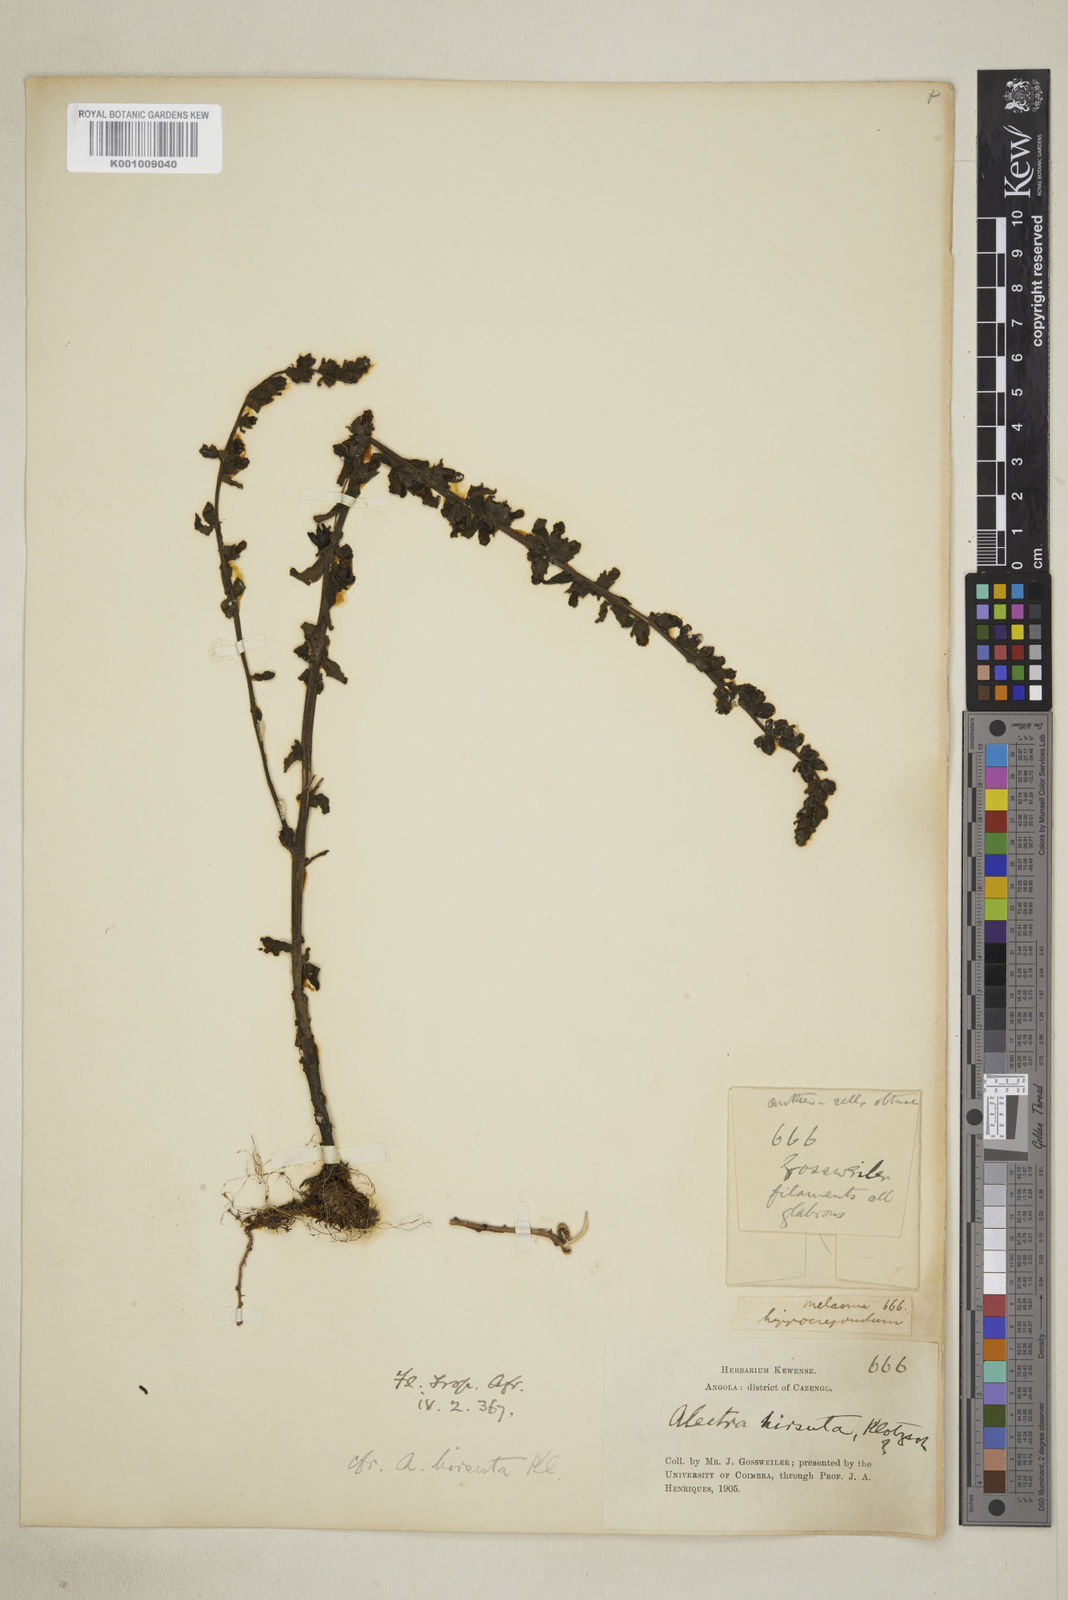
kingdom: Plantae
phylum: Tracheophyta
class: Magnoliopsida
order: Lamiales
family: Orobanchaceae
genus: Alectra
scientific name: Alectra hirsuta
